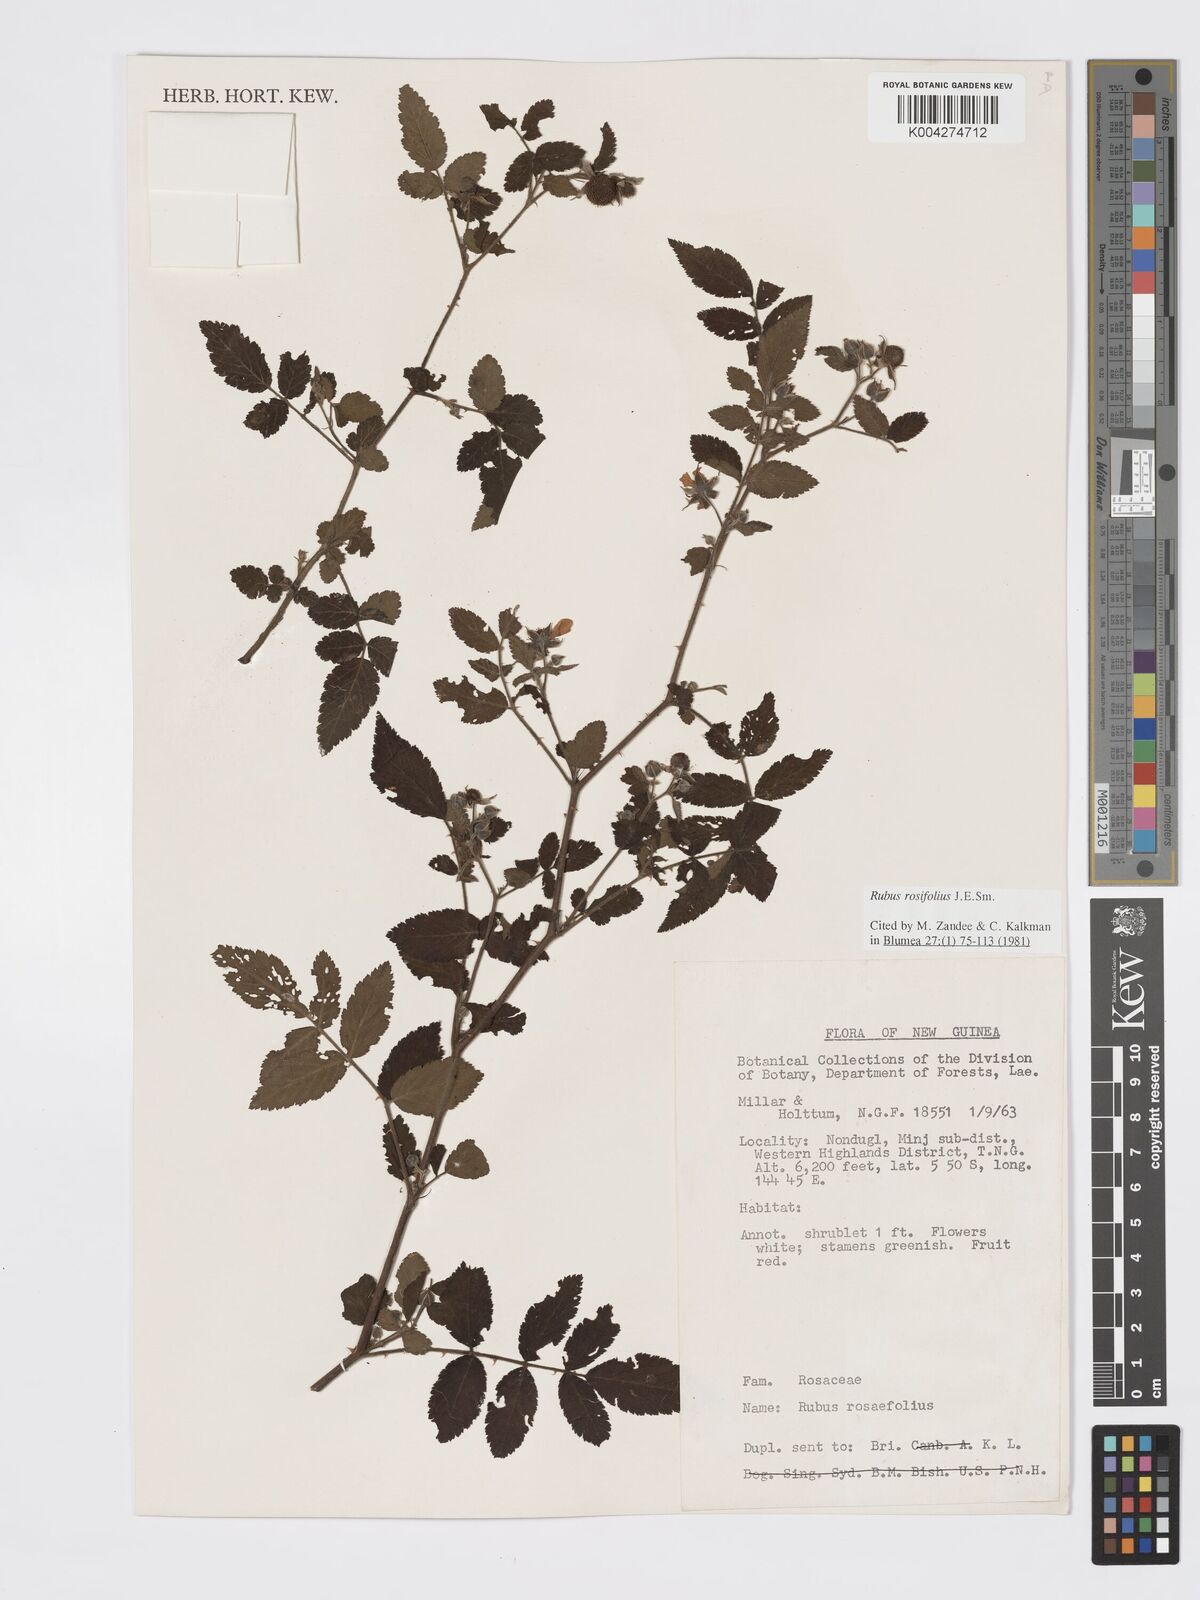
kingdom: Plantae
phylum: Tracheophyta
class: Magnoliopsida
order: Rosales
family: Rosaceae
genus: Rubus
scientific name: Rubus
